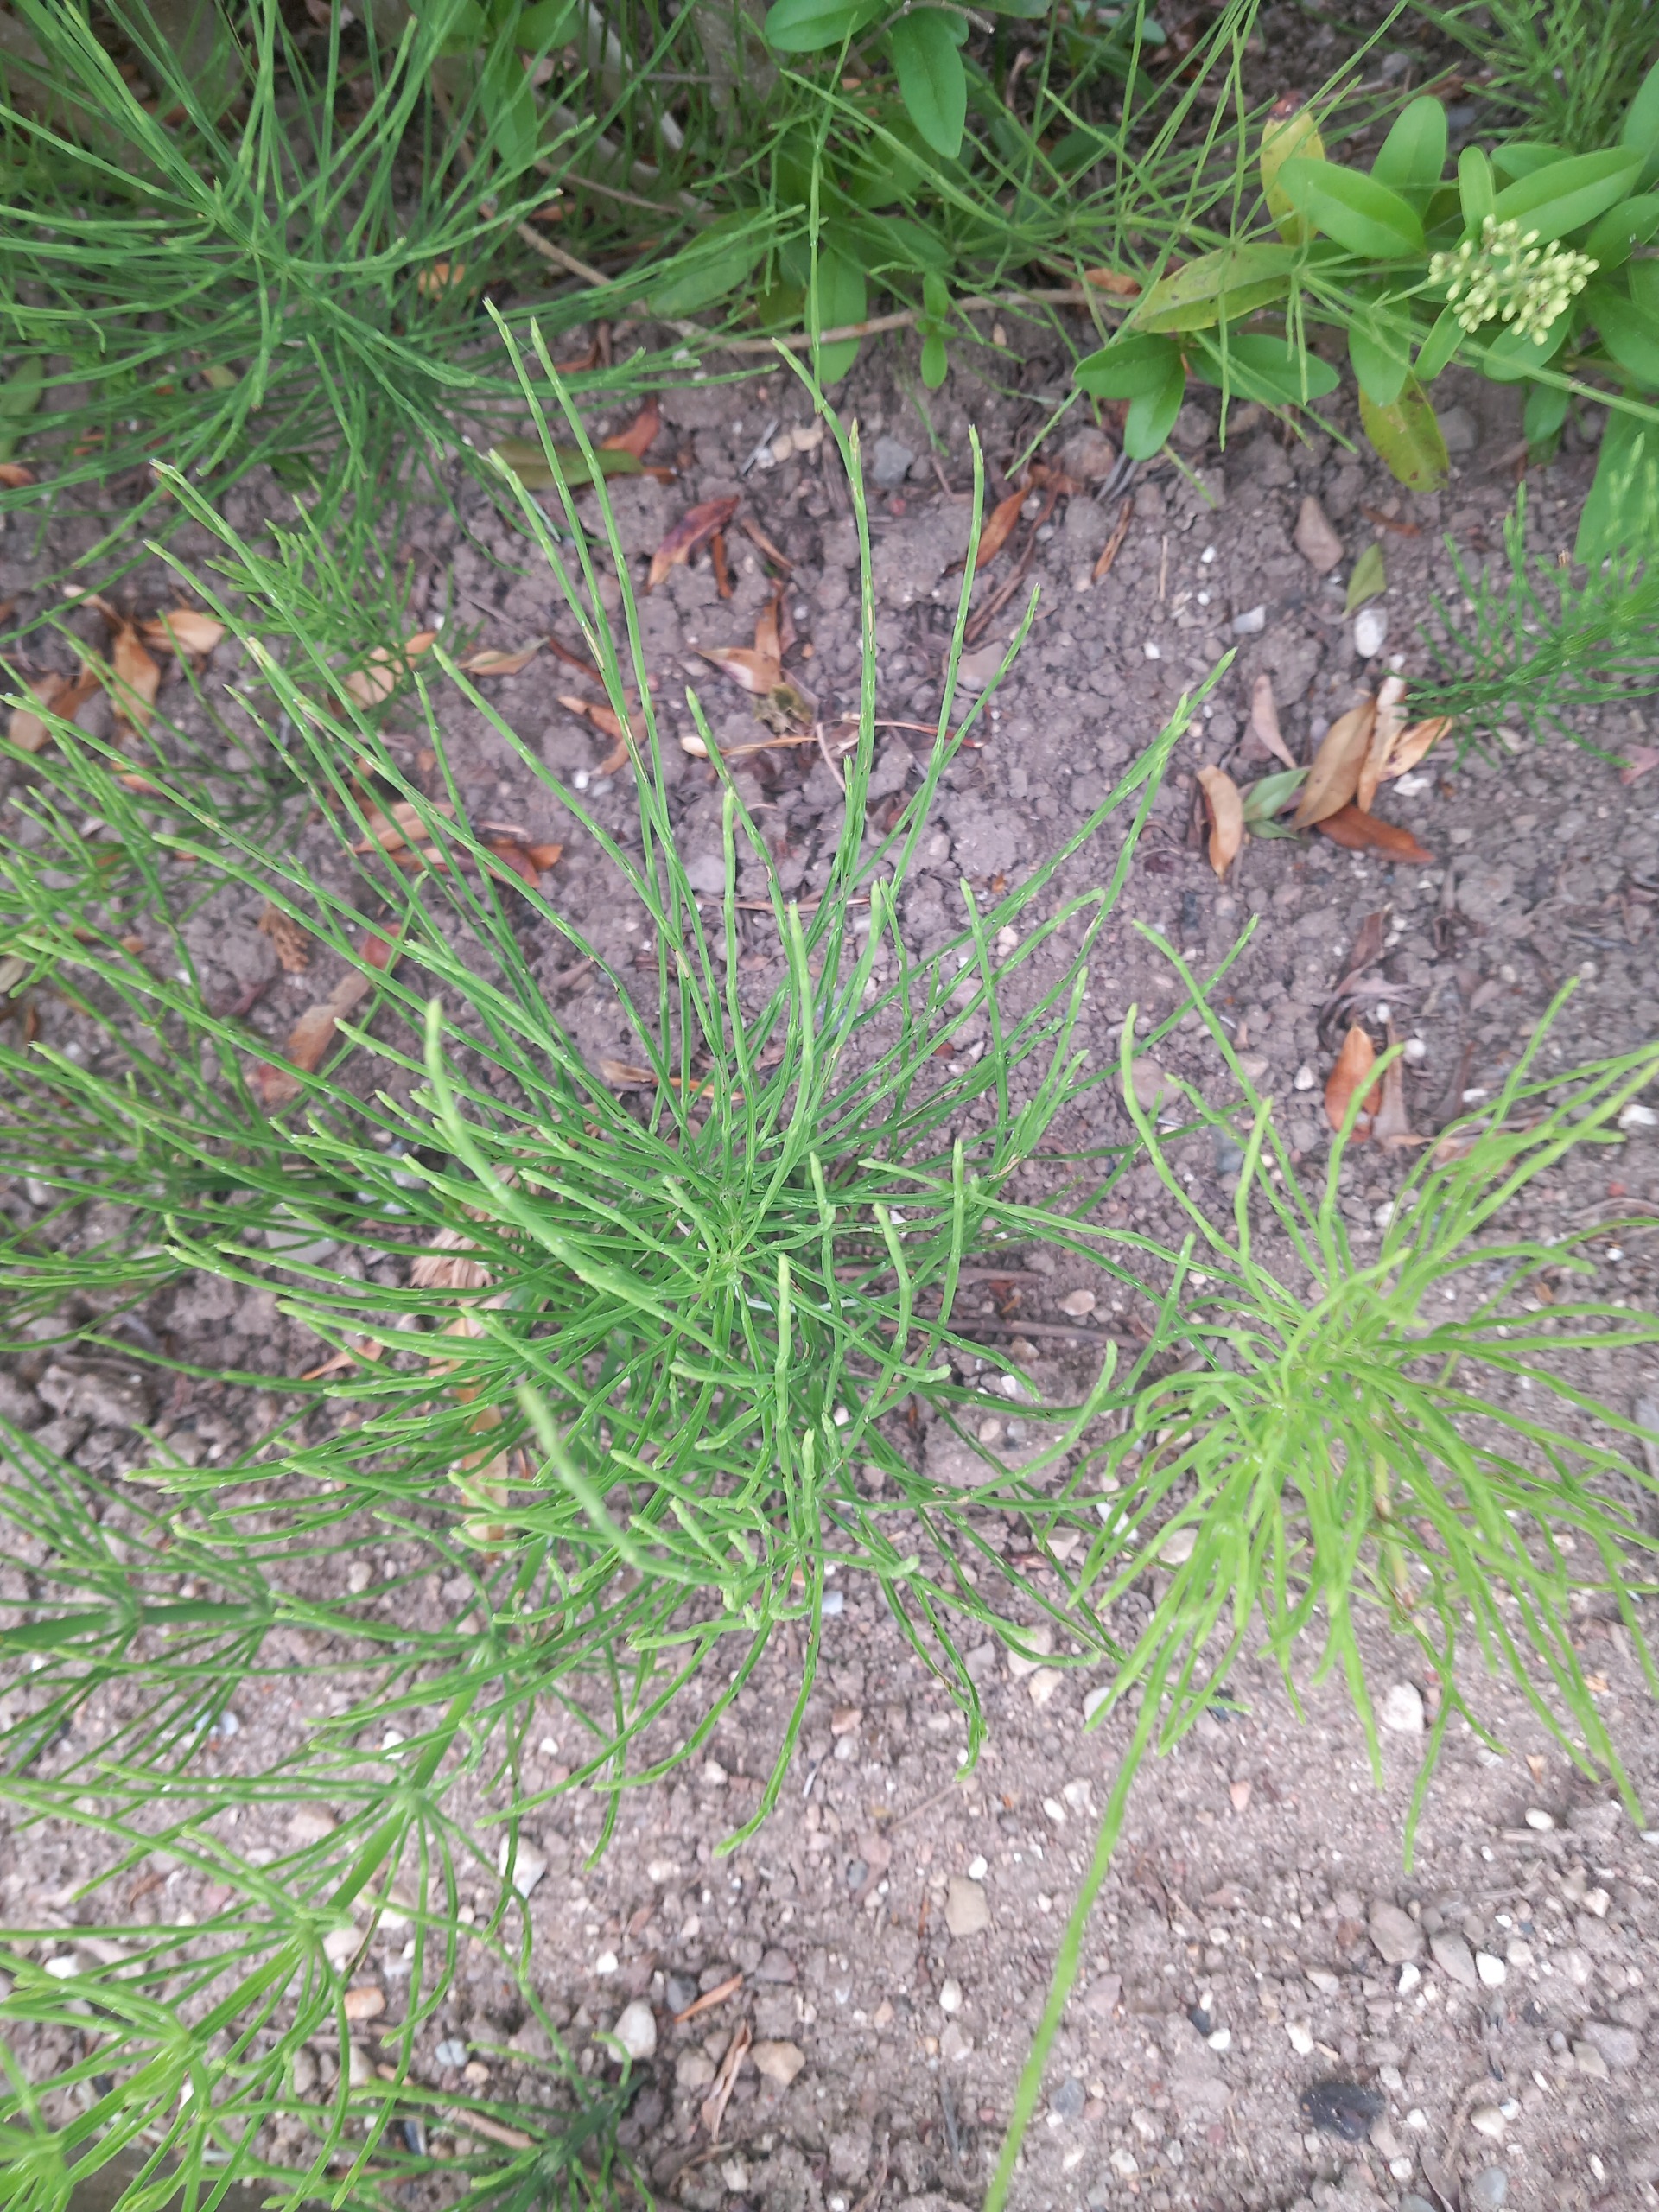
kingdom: Plantae
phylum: Tracheophyta
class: Polypodiopsida
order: Equisetales
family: Equisetaceae
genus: Equisetum
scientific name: Equisetum arvense
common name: Ager-padderok
